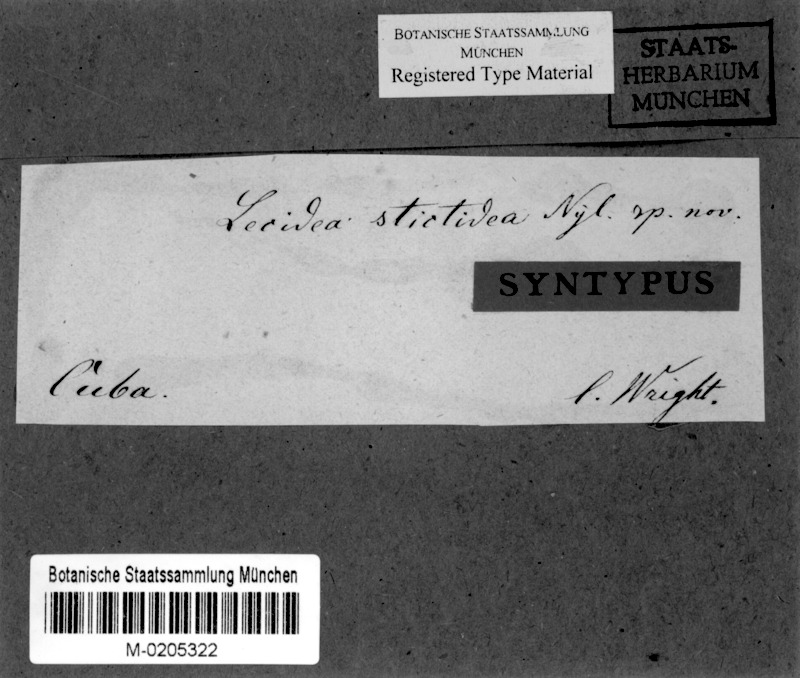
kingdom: Fungi
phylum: Ascomycota
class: Lecanoromycetes
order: Ostropales
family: Stictidaceae
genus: Trinathotrema
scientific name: Trinathotrema stictideum
